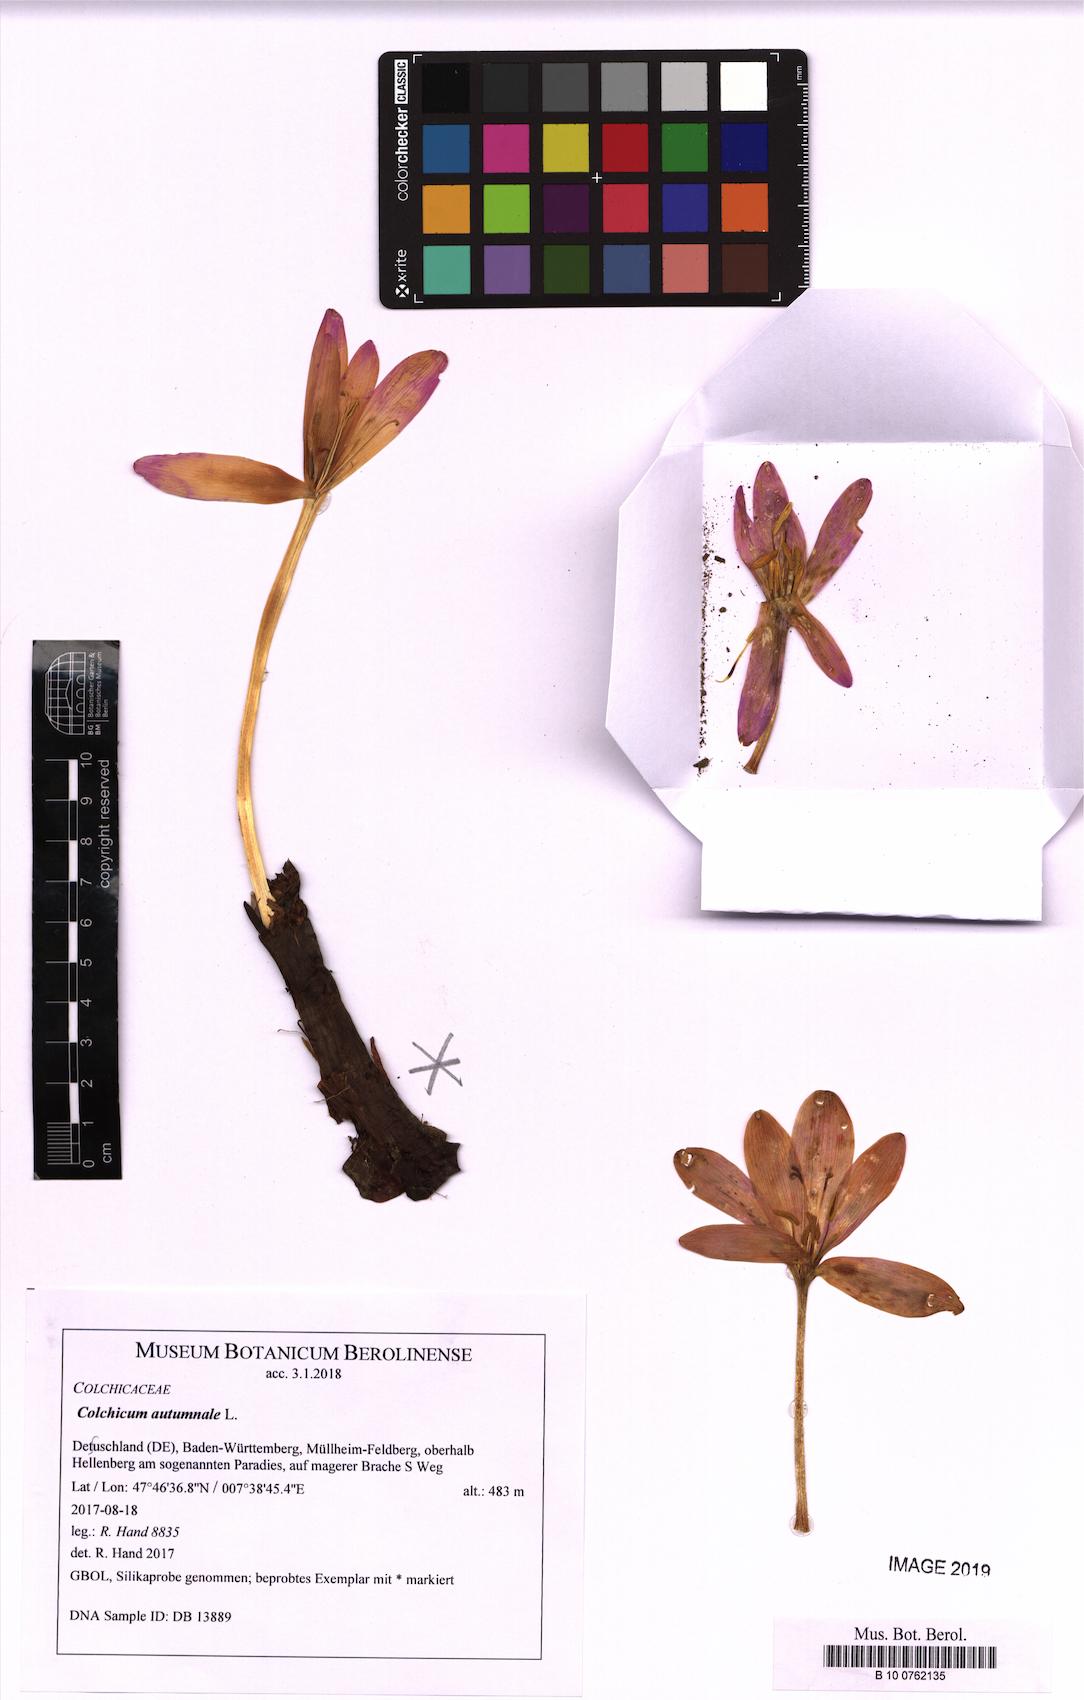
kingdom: Plantae
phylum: Tracheophyta
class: Liliopsida
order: Liliales
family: Colchicaceae
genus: Colchicum
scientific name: Colchicum autumnale
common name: Autumn crocus
